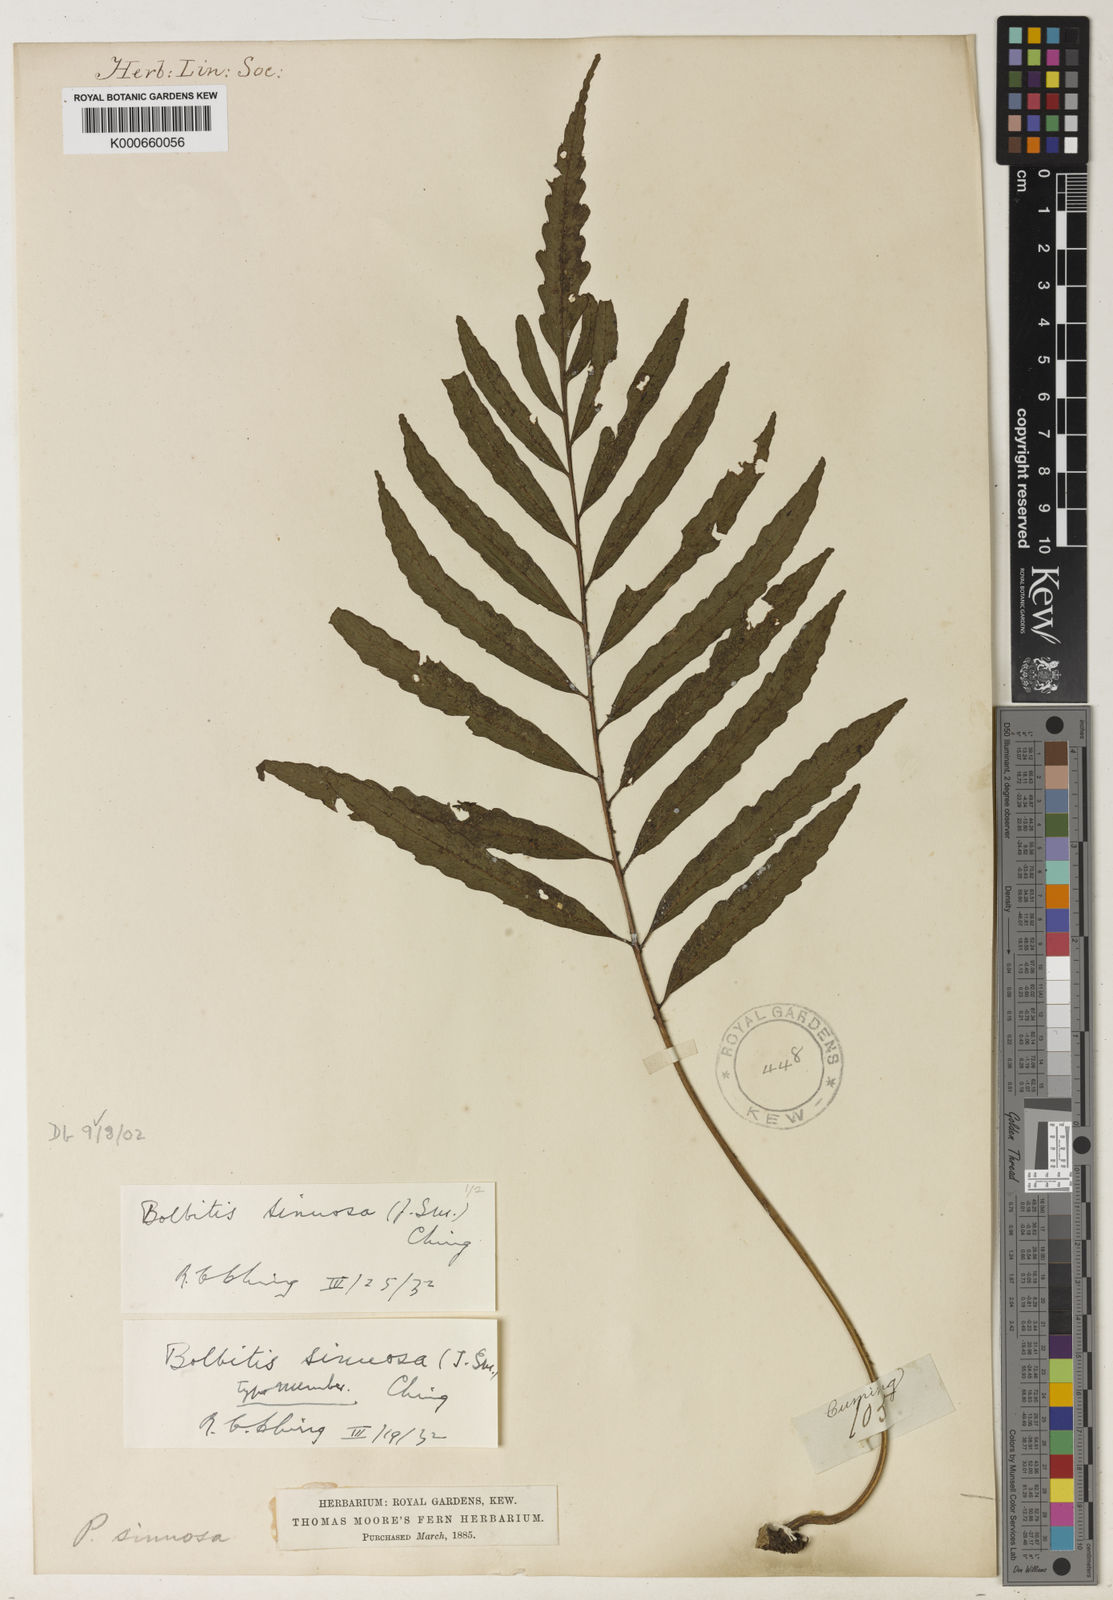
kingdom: Plantae
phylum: Tracheophyta
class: Polypodiopsida
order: Polypodiales
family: Dryopteridaceae
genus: Bolbitis
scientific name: Bolbitis
